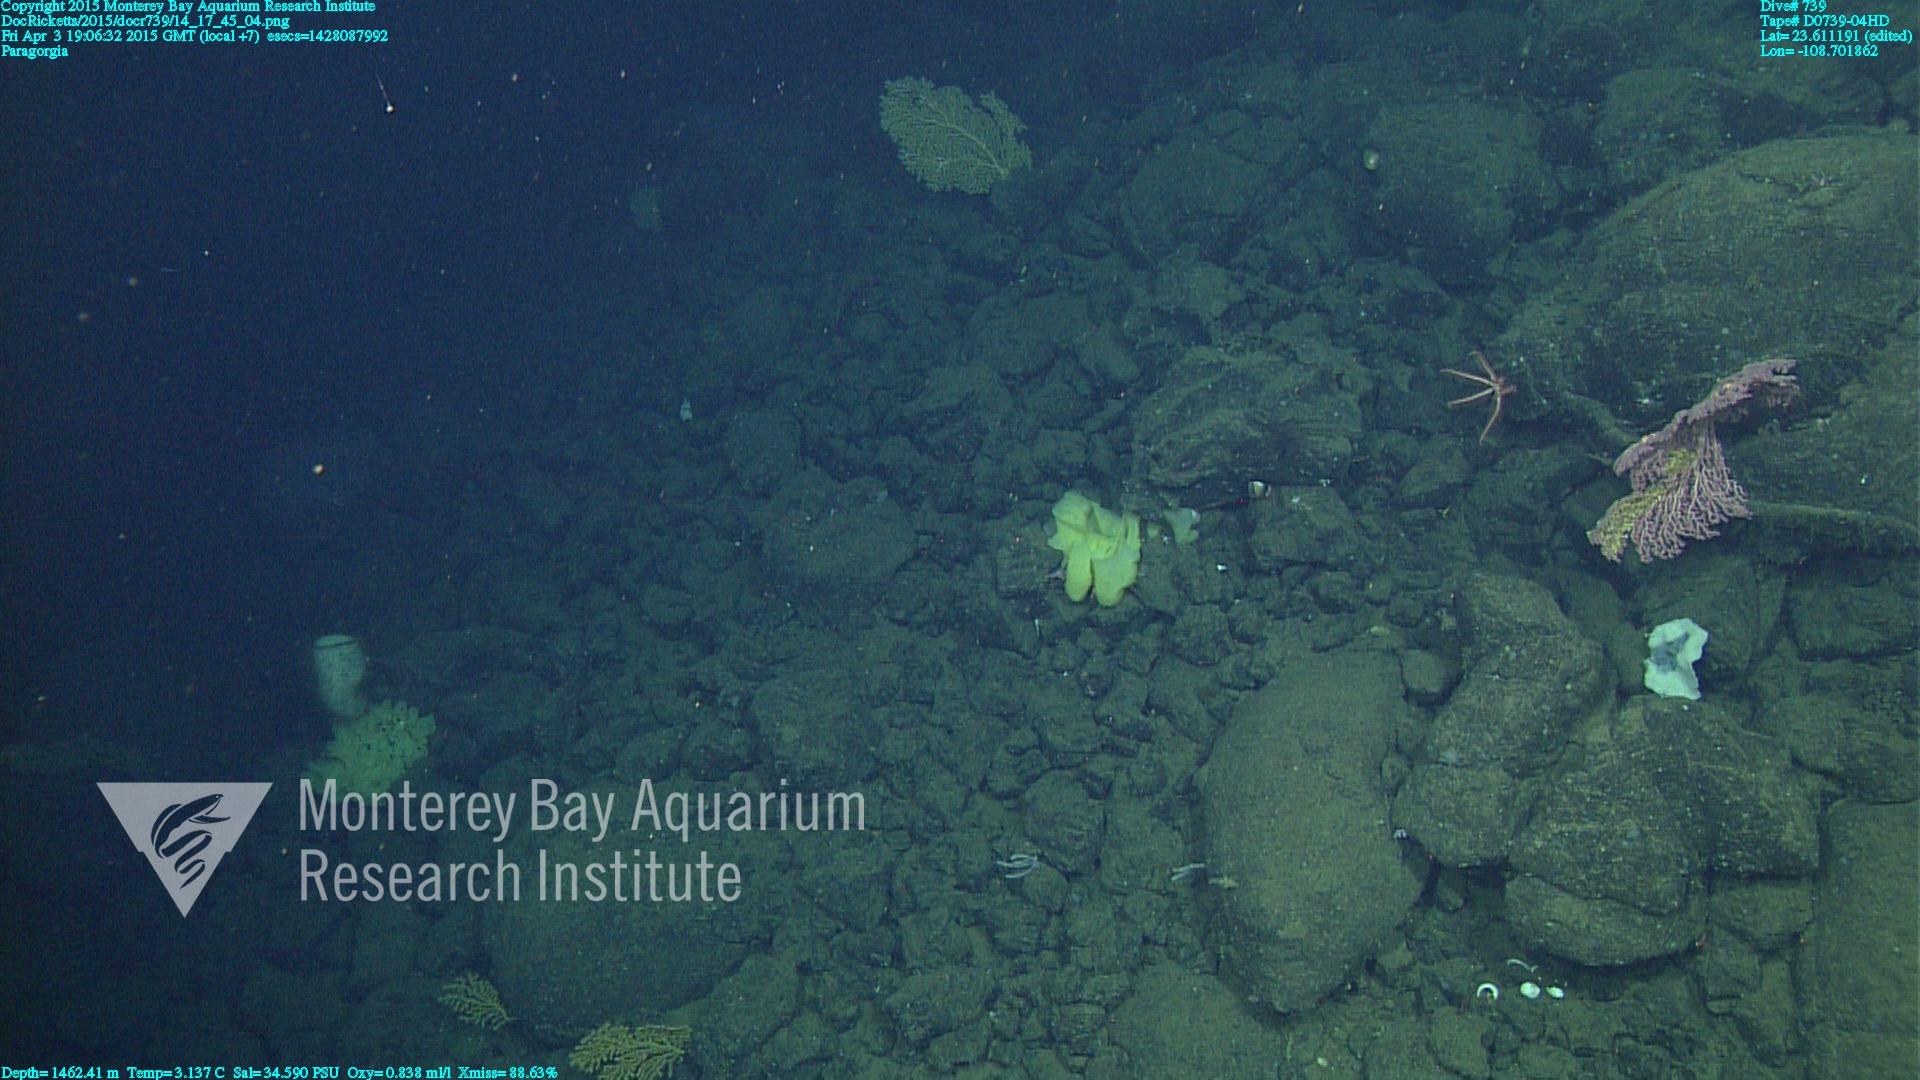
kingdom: Animalia
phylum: Cnidaria
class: Anthozoa
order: Scleralcyonacea
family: Coralliidae
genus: Paragorgia
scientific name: Paragorgia
